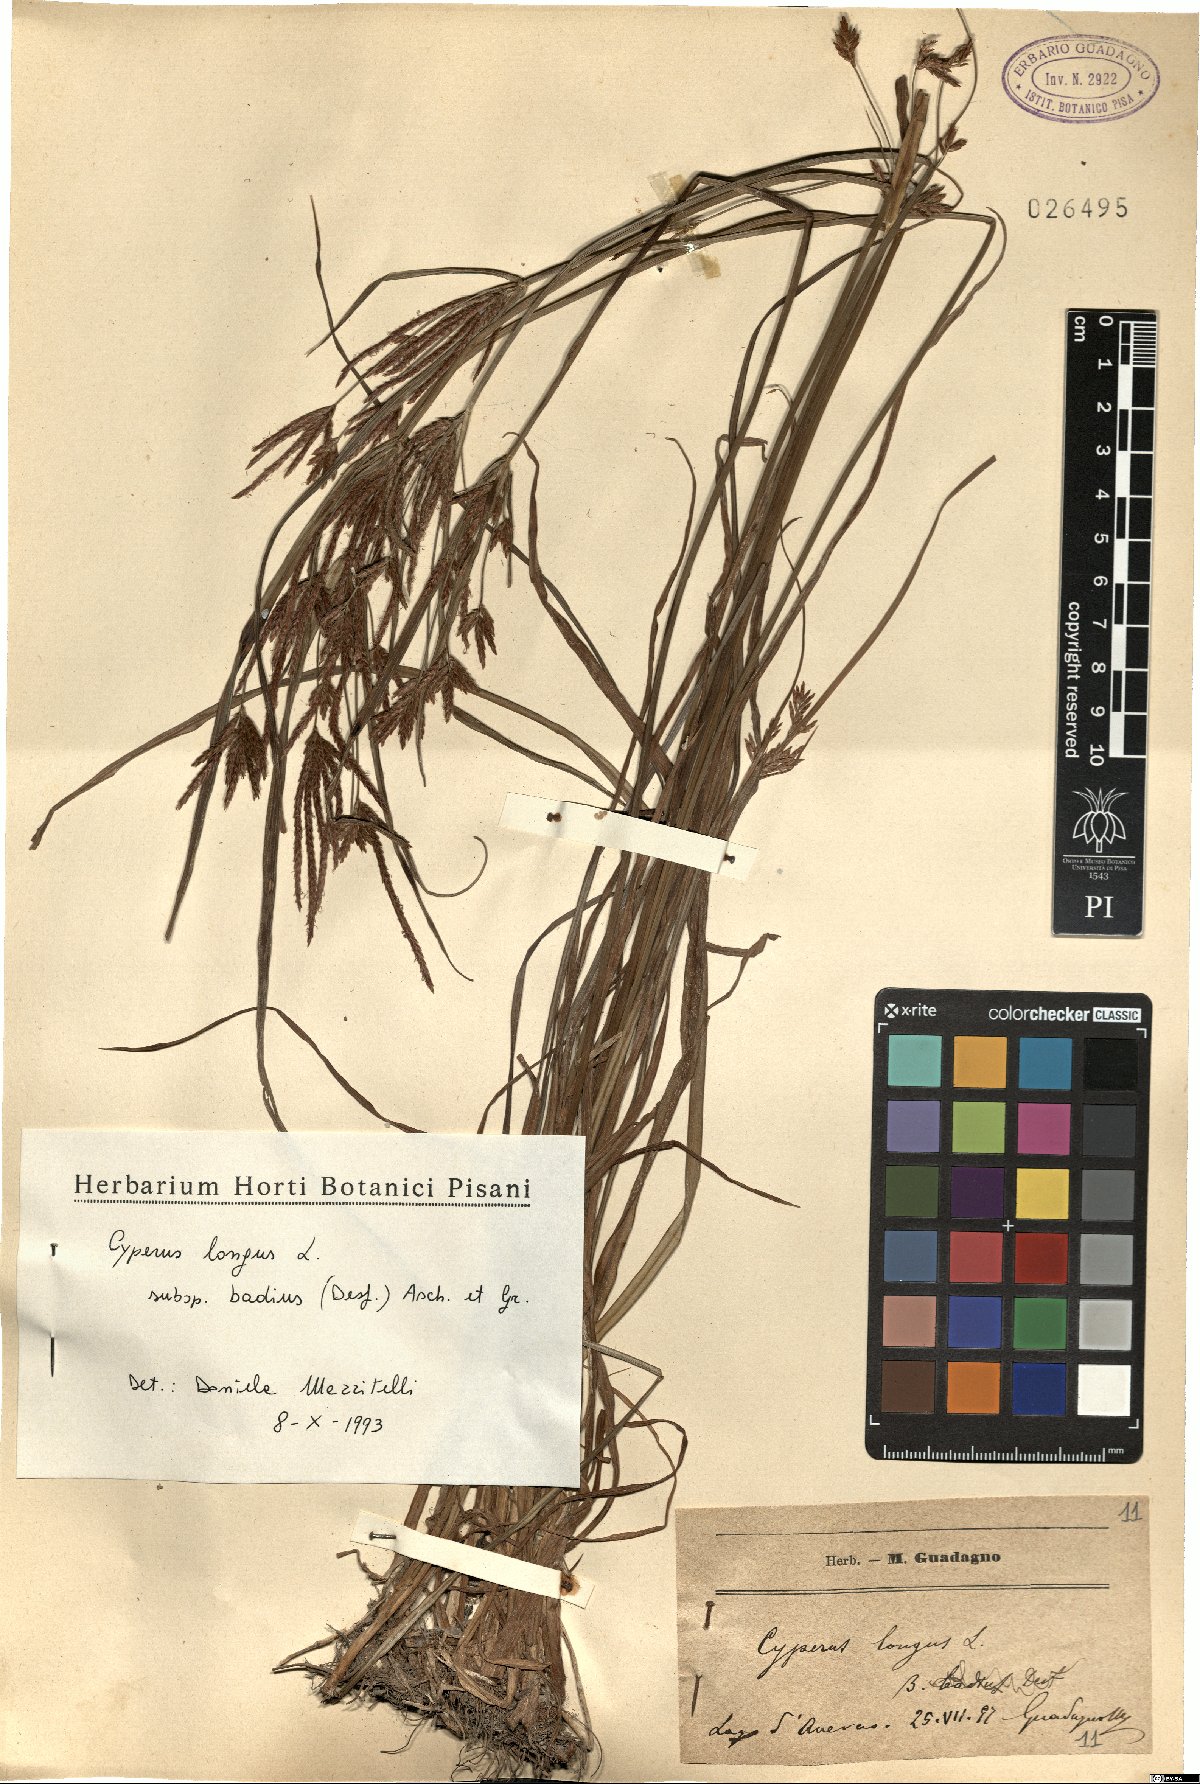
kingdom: Plantae
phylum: Tracheophyta
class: Liliopsida
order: Poales
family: Cyperaceae
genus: Cyperus
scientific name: Cyperus longus
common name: Galingale
